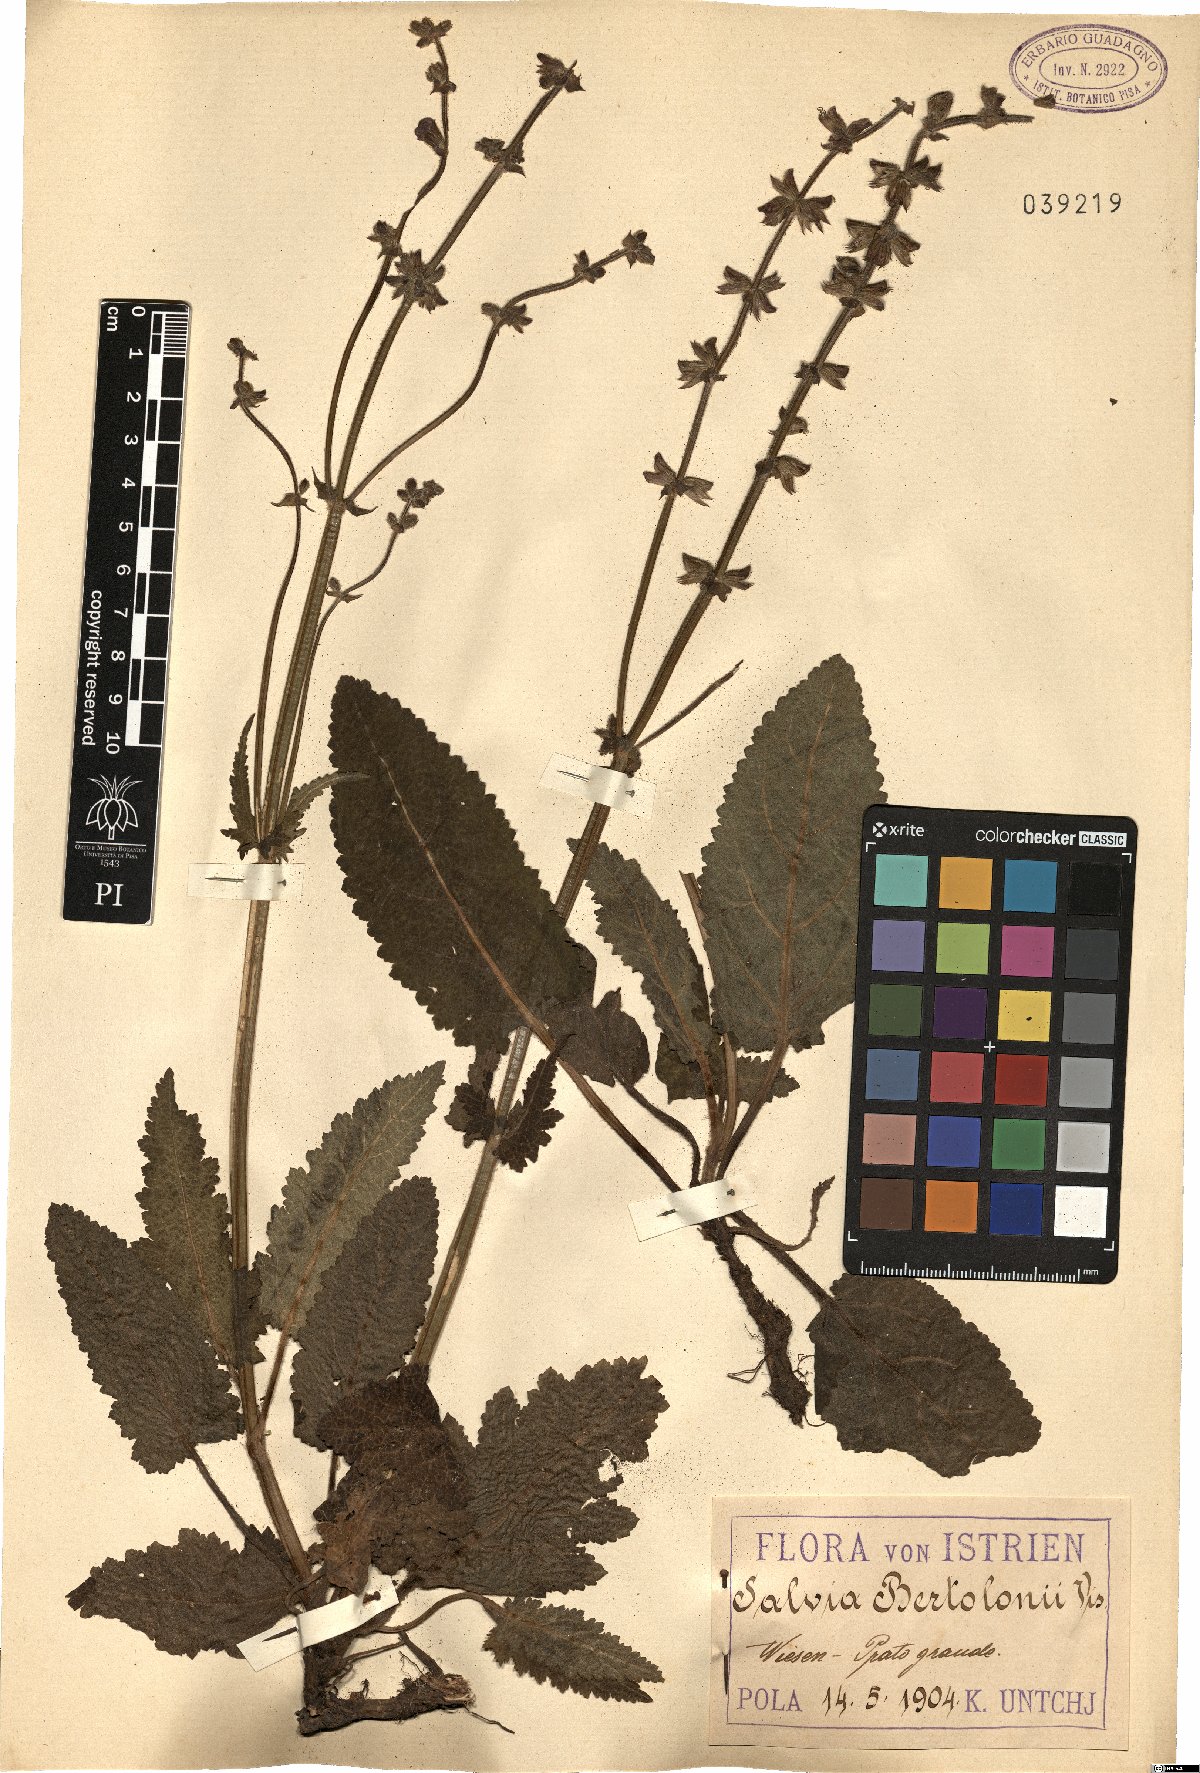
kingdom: Plantae
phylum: Tracheophyta
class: Magnoliopsida
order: Lamiales
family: Lamiaceae
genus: Salvia
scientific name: Salvia pratensis
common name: Meadow sage
